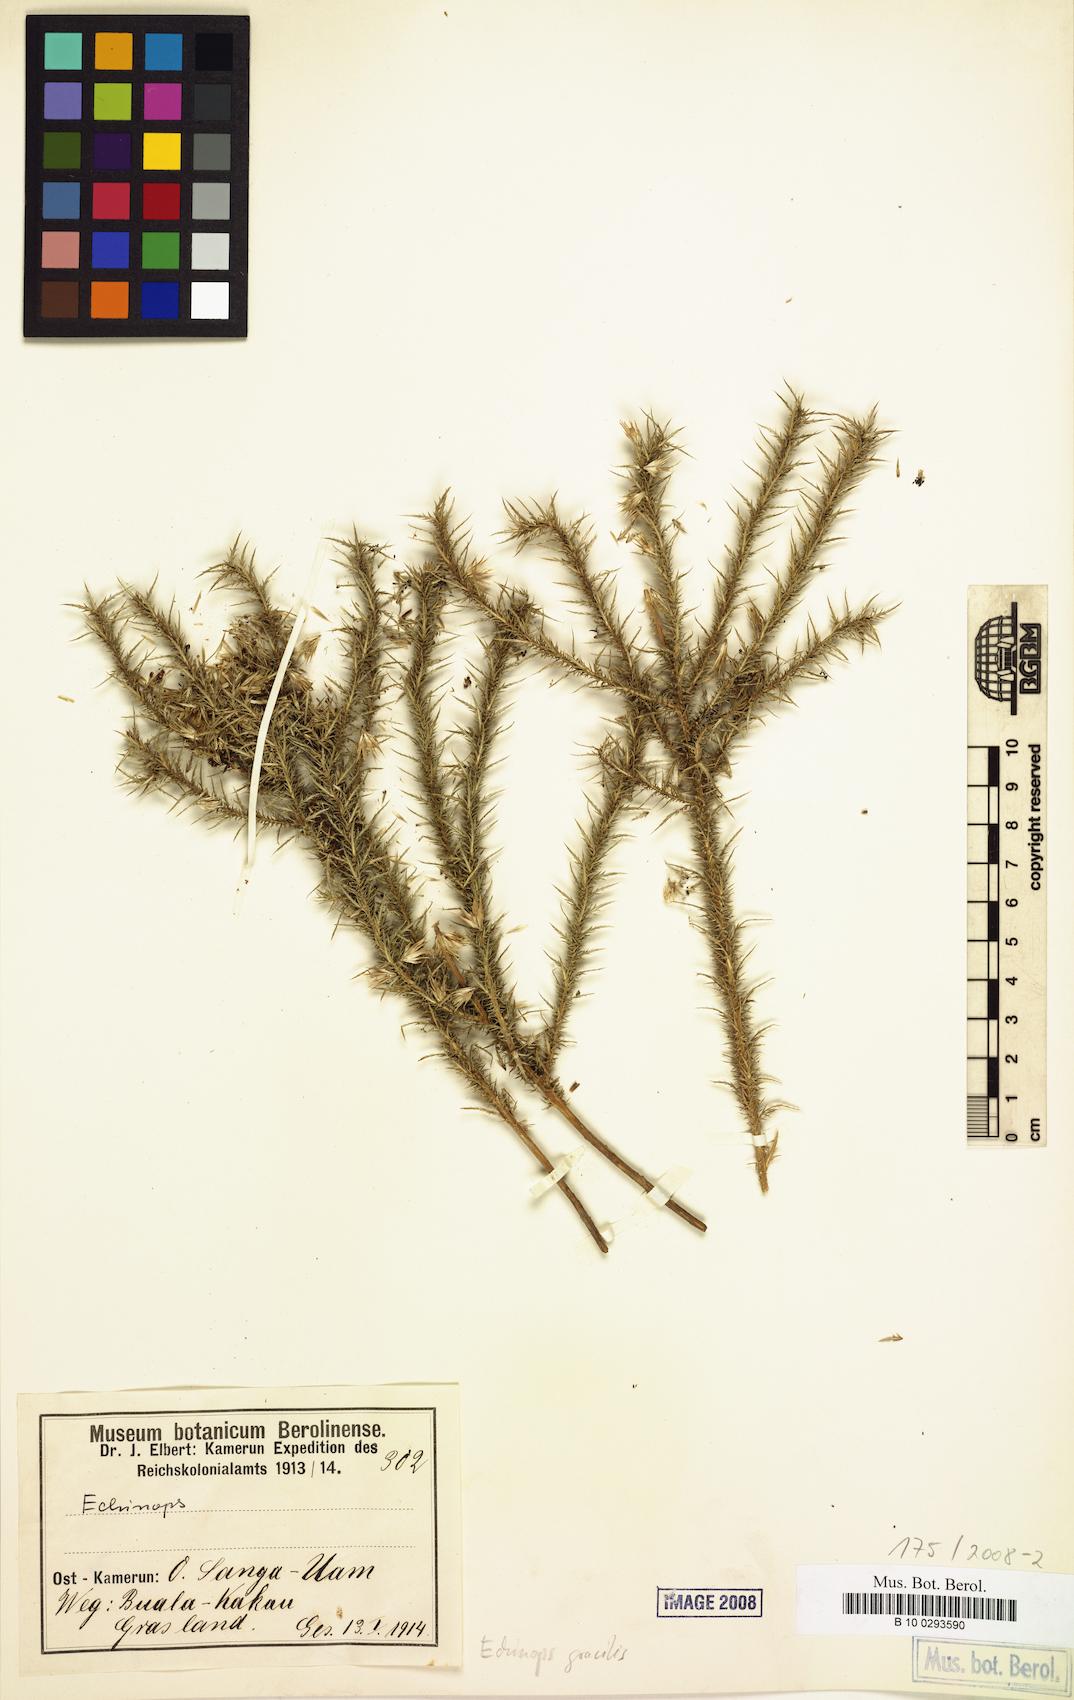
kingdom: Plantae
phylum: Tracheophyta
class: Magnoliopsida
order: Asterales
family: Asteraceae
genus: Echinops
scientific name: Echinops gracilis
